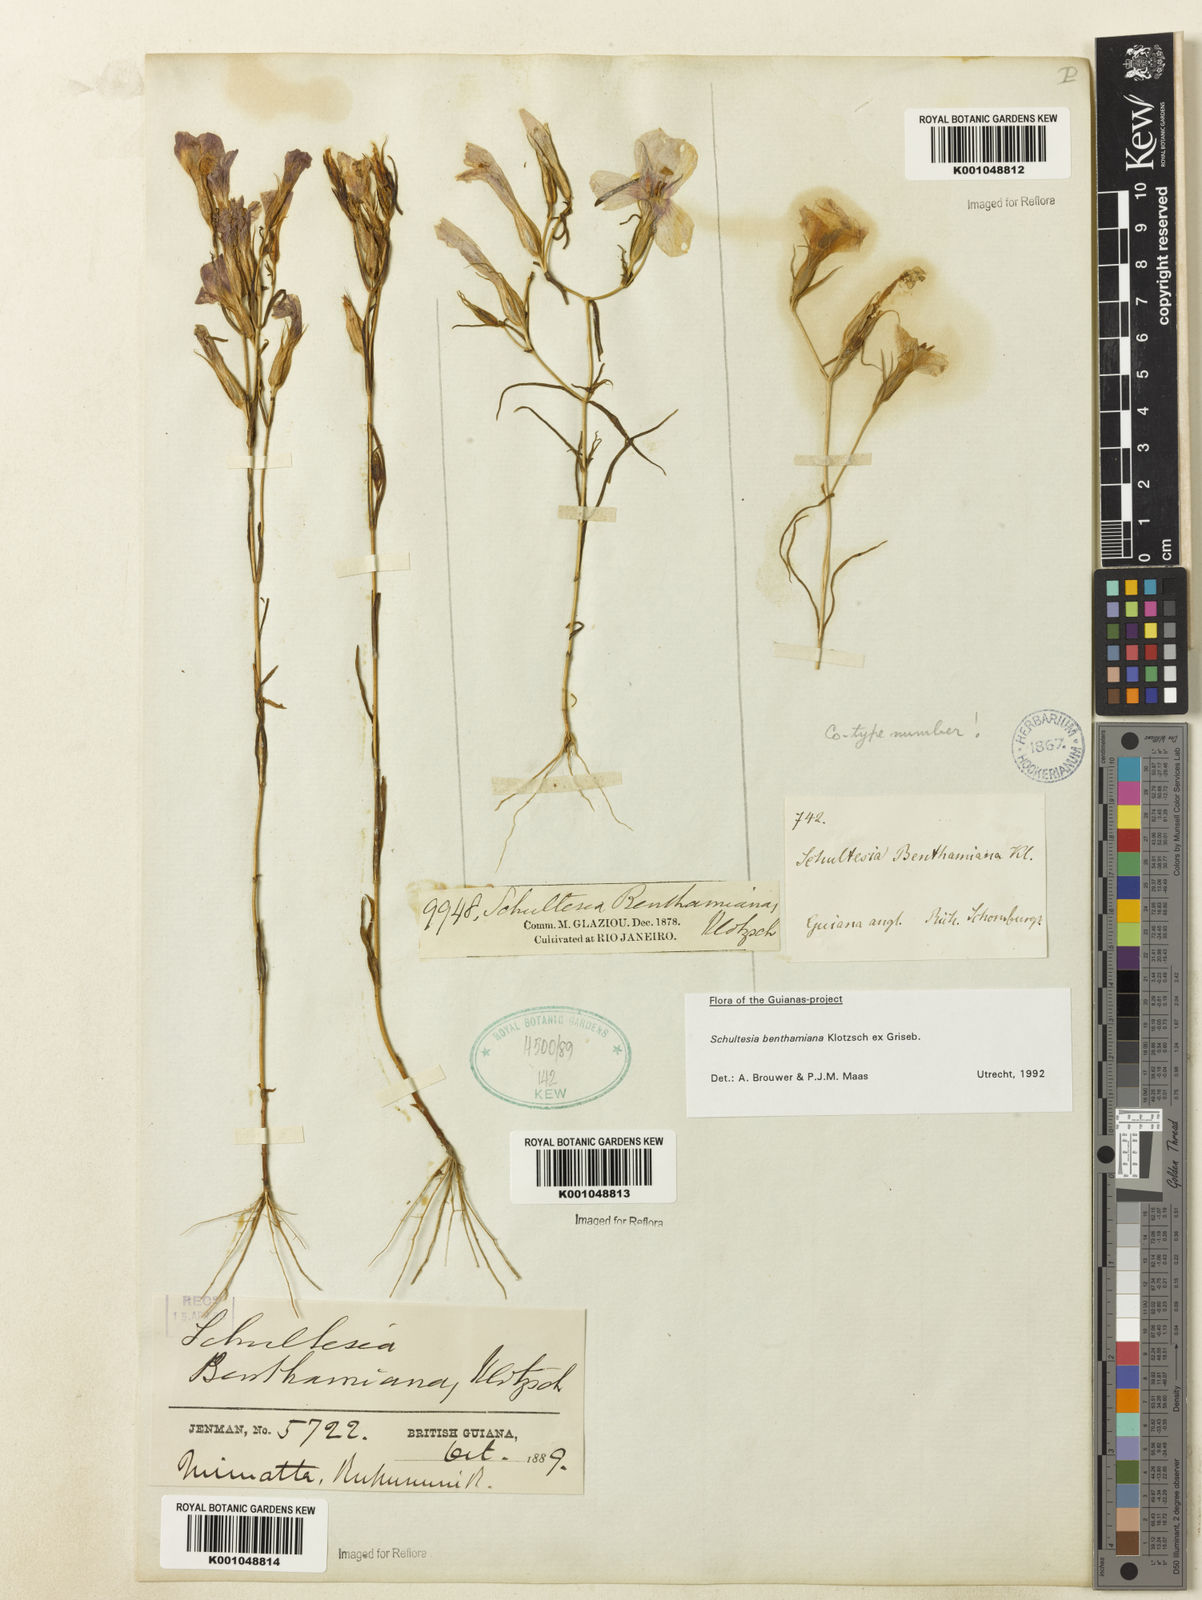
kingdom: Plantae
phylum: Tracheophyta
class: Magnoliopsida
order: Gentianales
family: Gentianaceae
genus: Schultesia
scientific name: Schultesia benthamiana
